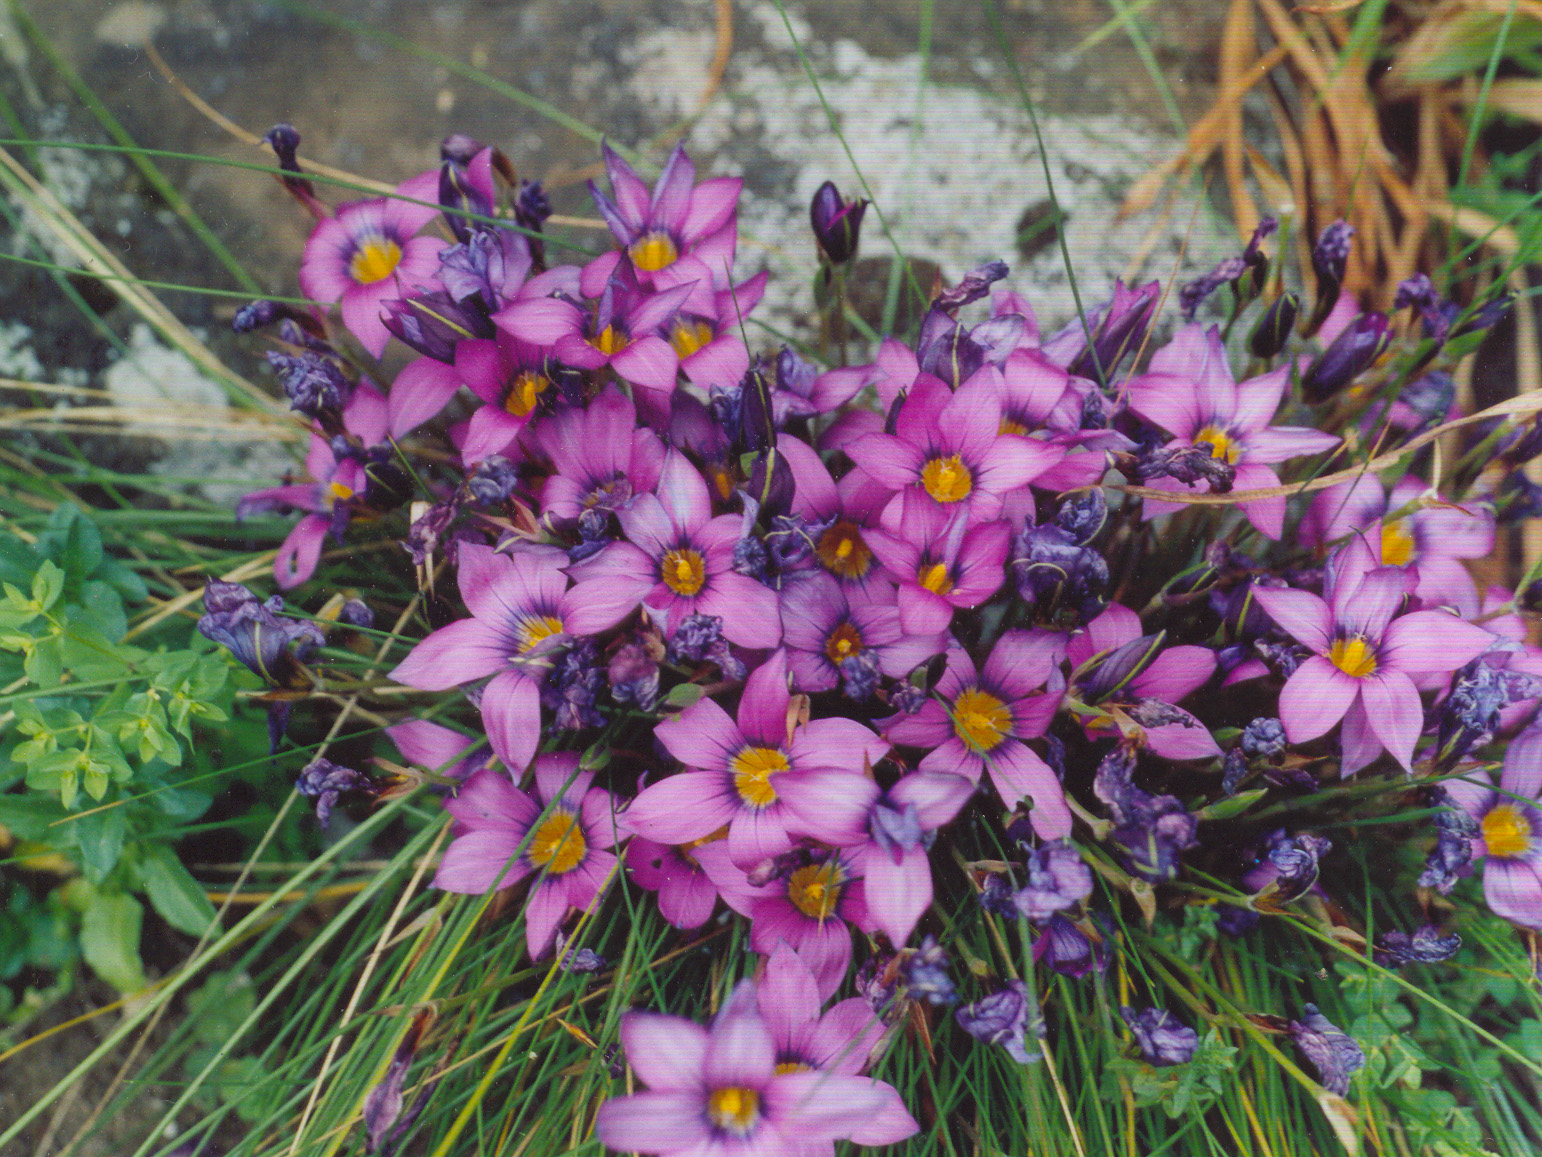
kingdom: Plantae
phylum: Tracheophyta
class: Liliopsida
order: Asparagales
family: Iridaceae
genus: Romulea
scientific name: Romulea rosea
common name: Oniongrass
